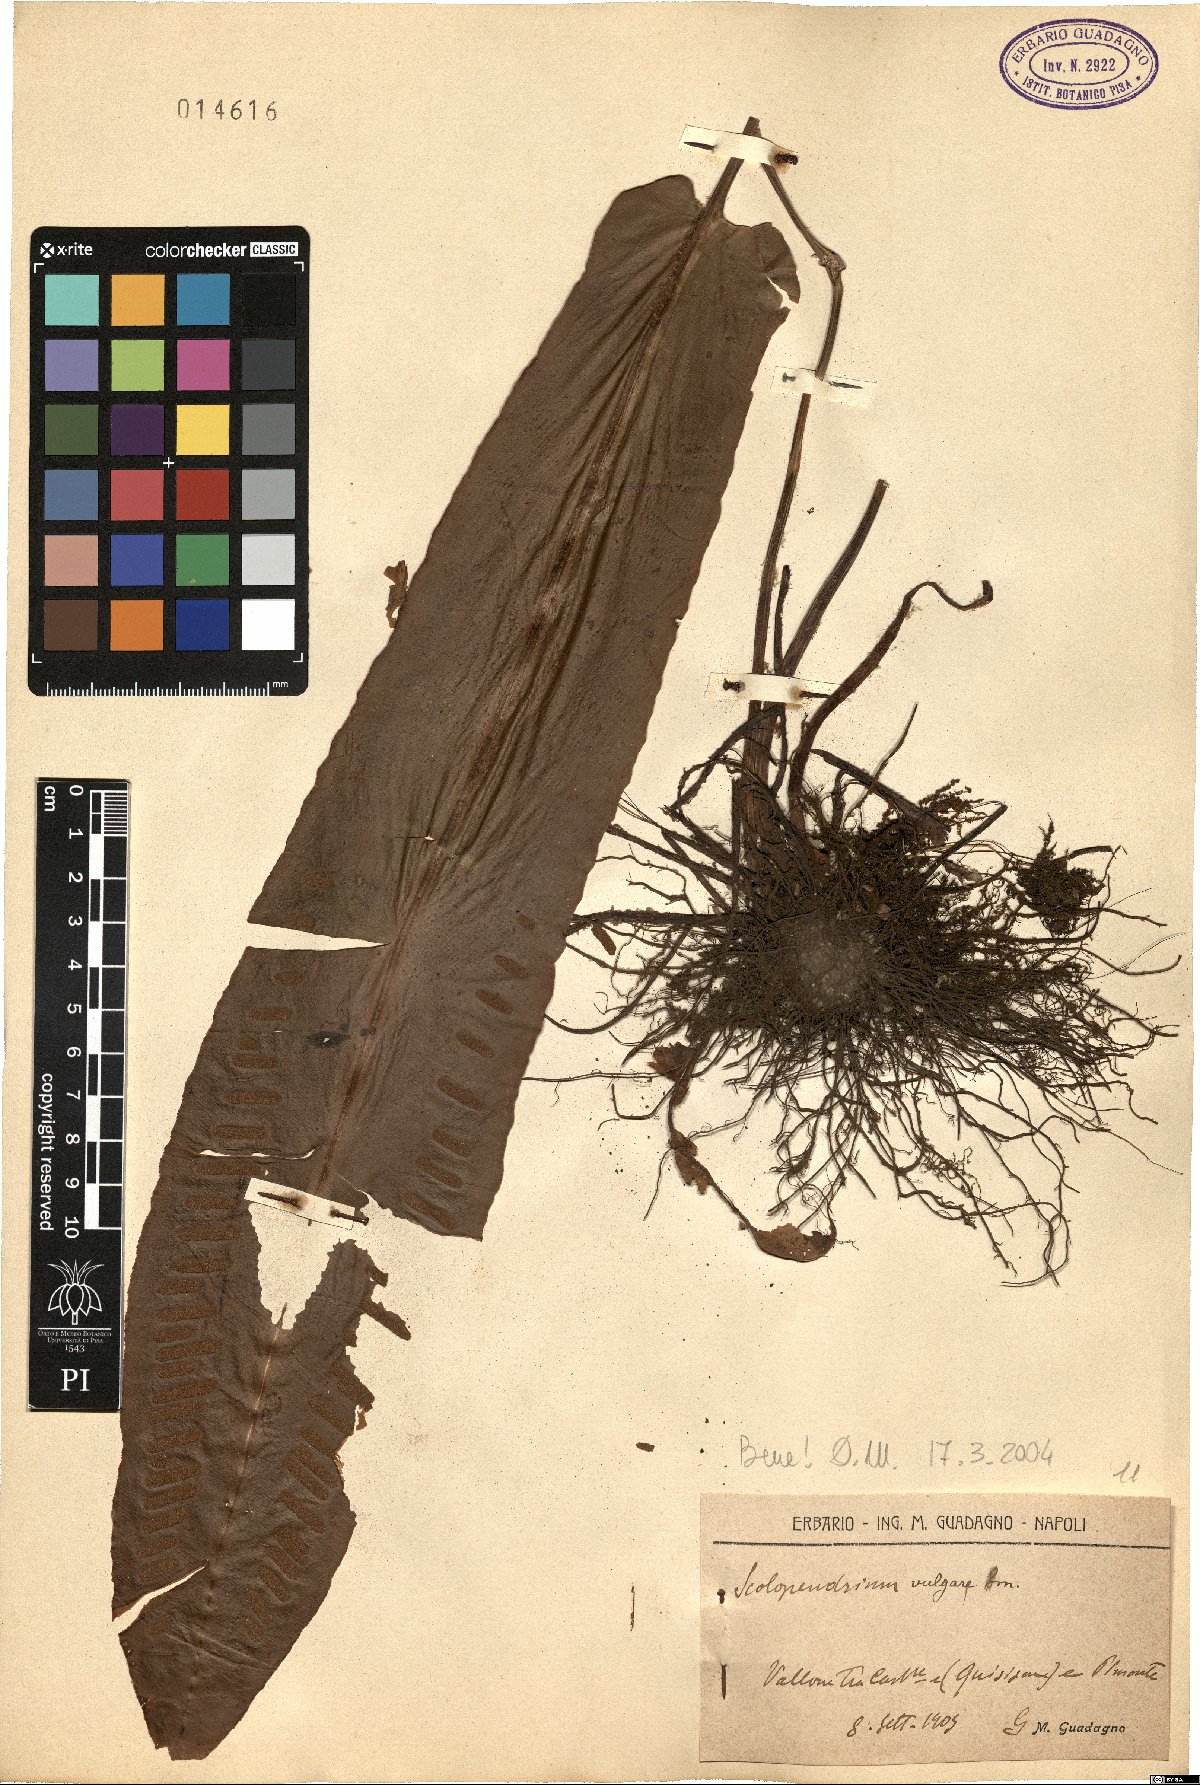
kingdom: Plantae
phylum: Tracheophyta
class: Polypodiopsida
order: Polypodiales
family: Aspleniaceae
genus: Asplenium
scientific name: Asplenium scolopendrium
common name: Hart's-tongue fern
